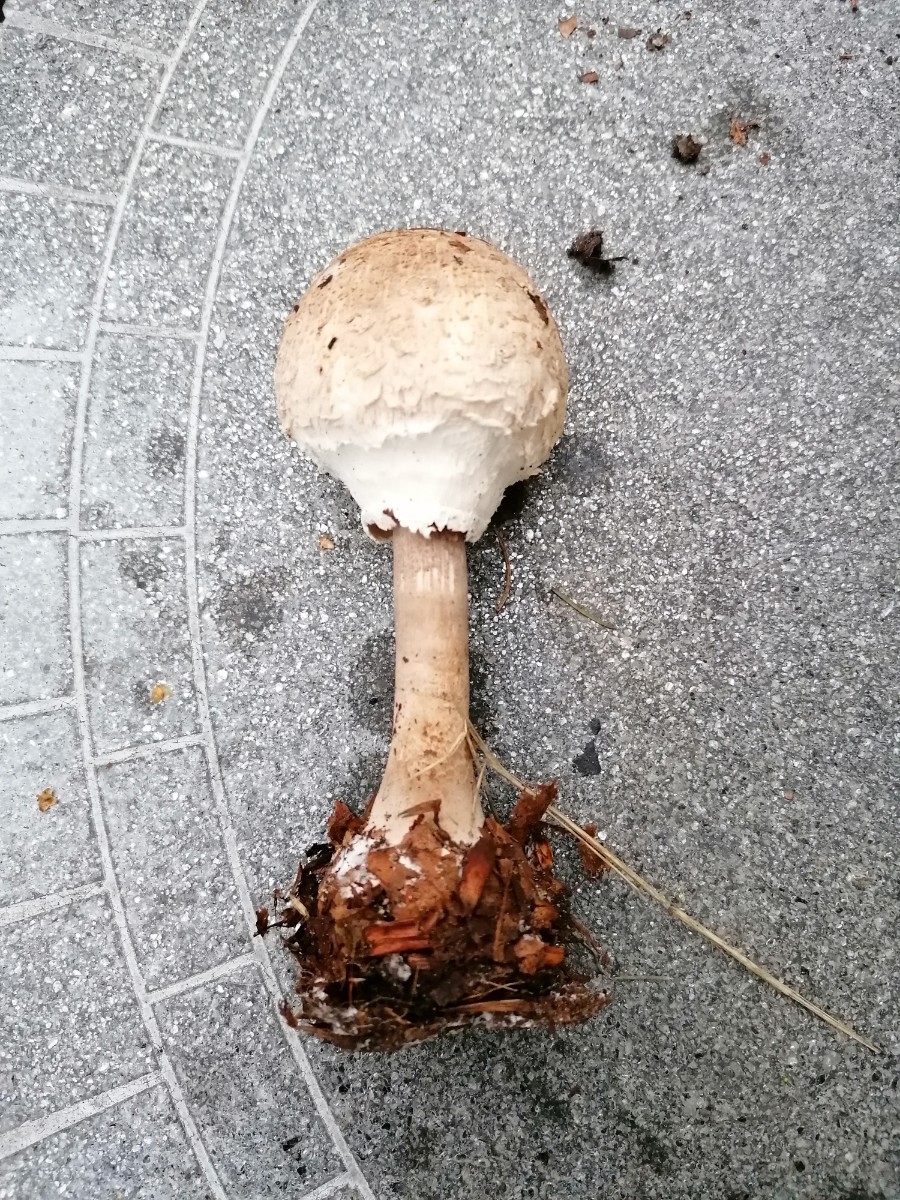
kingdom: Fungi
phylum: Basidiomycota
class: Agaricomycetes
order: Agaricales
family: Agaricaceae
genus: Macrolepiota
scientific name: Macrolepiota mastoidea
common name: puklet kæmpeparasolhat
